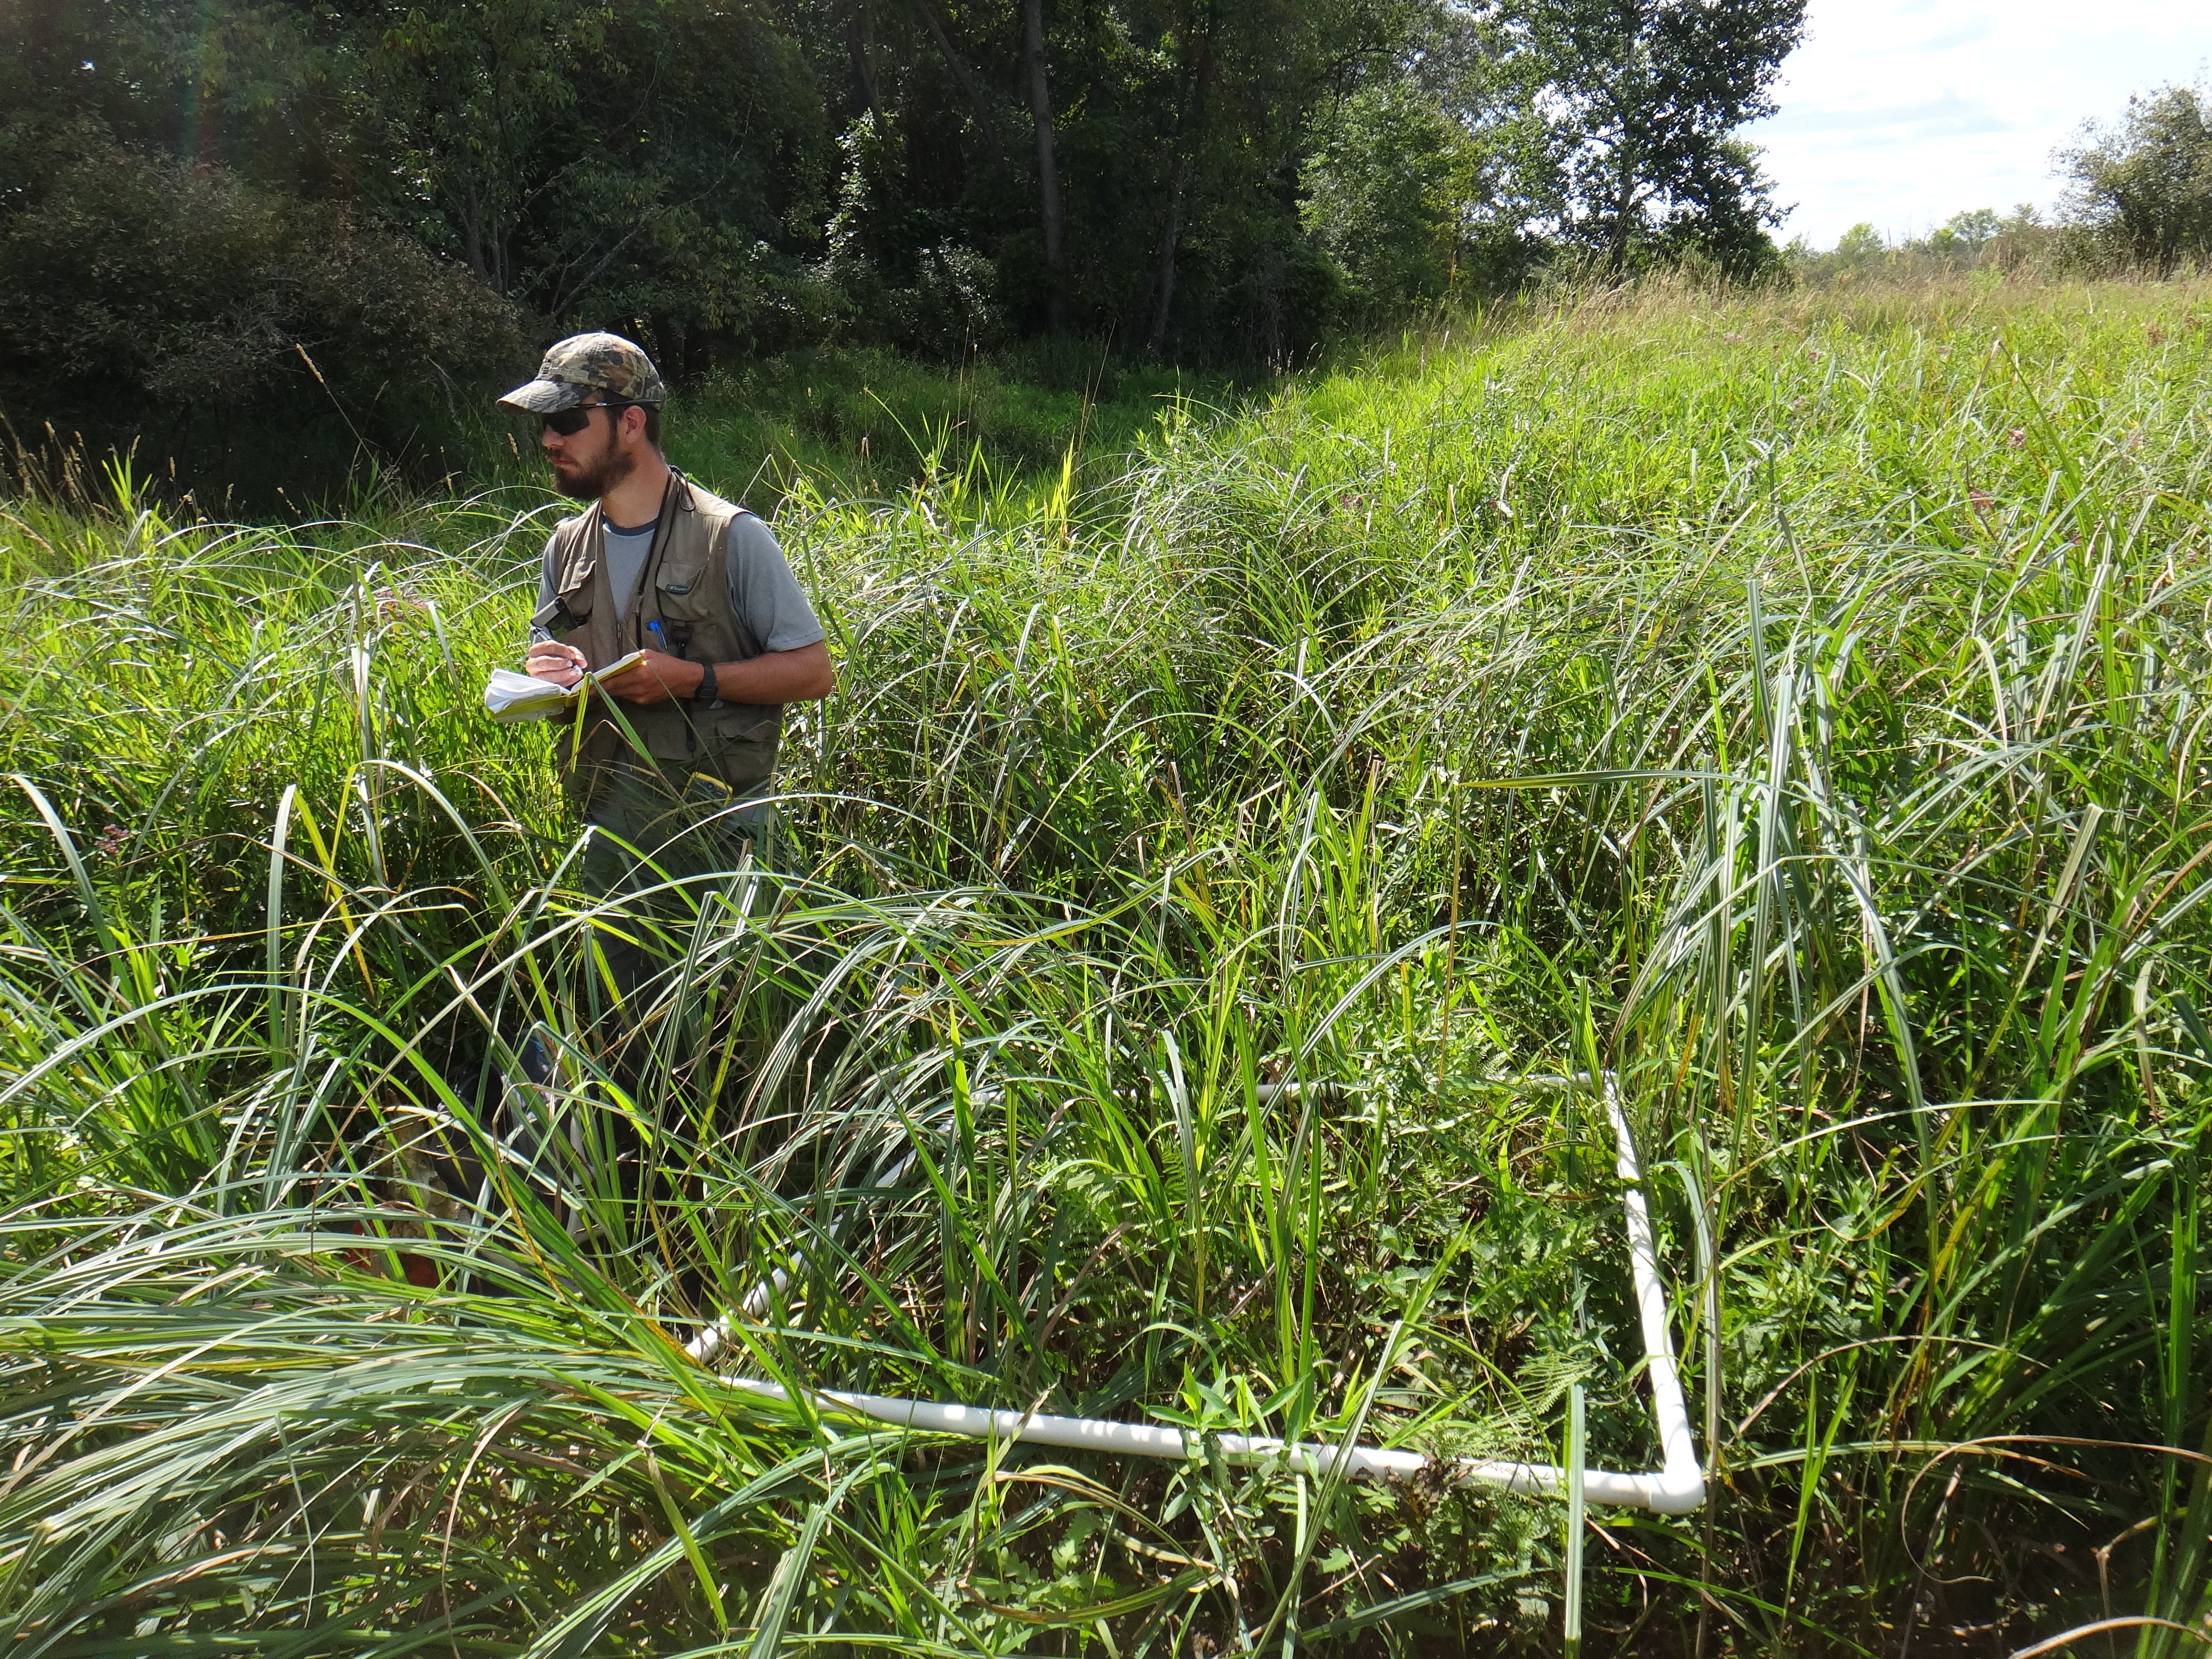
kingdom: Plantae
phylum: Tracheophyta
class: Magnoliopsida
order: Rosales
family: Urticaceae
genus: Pilea
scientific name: Pilea pumila
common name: Clearweed
